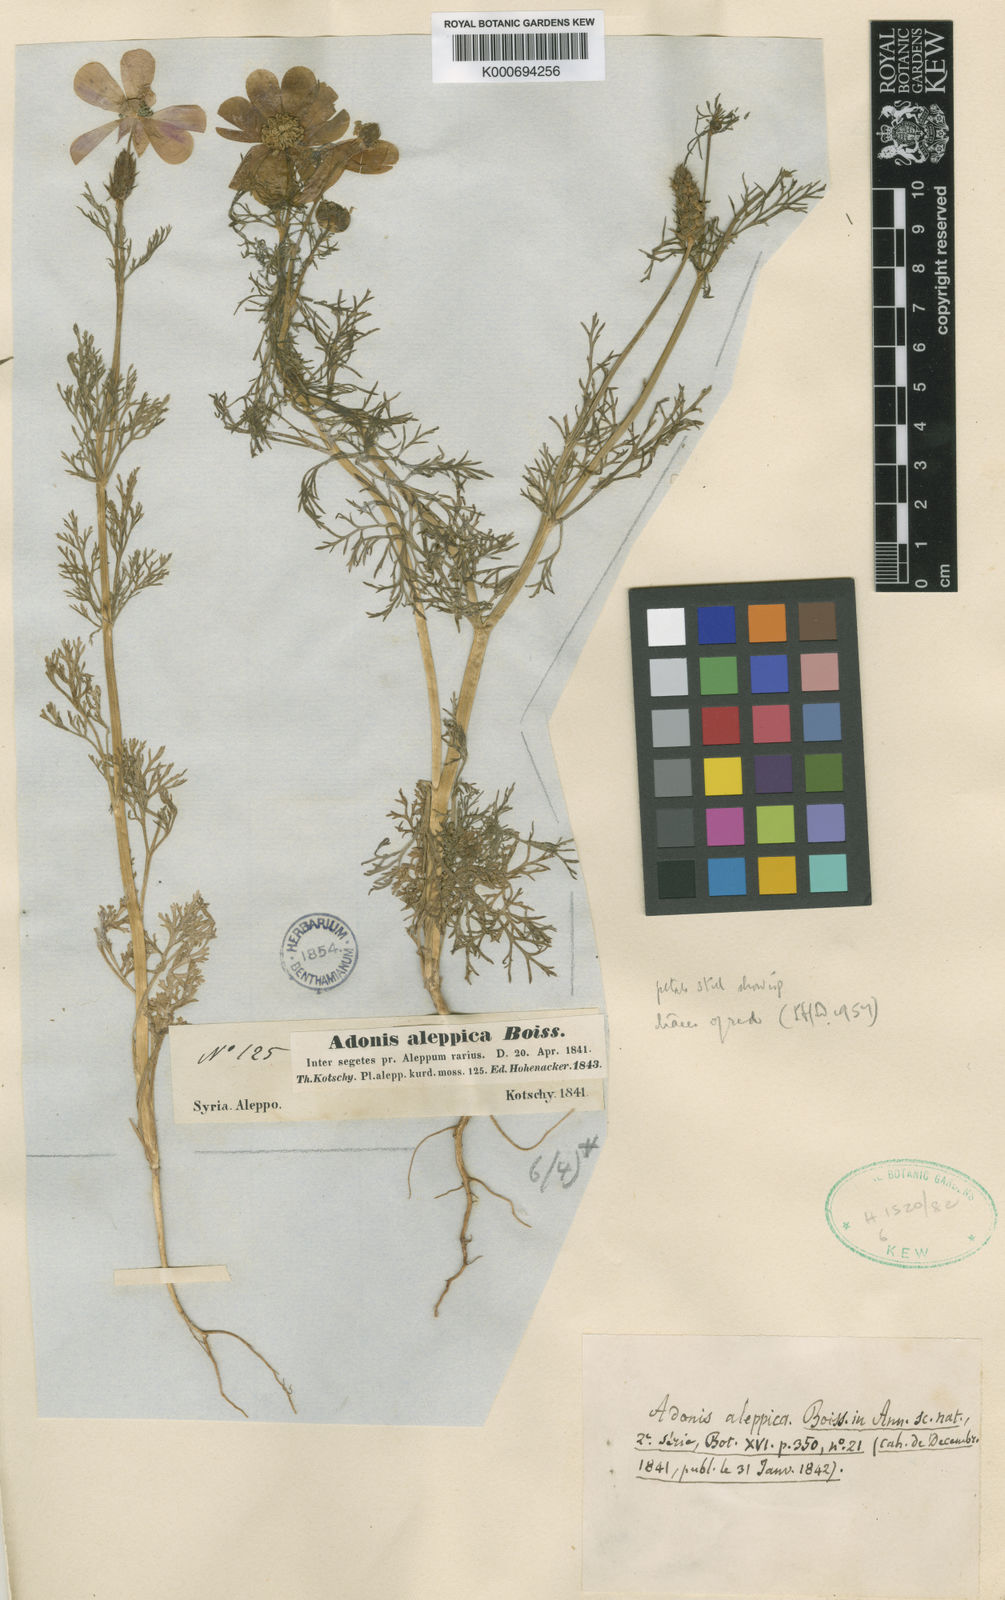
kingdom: Plantae
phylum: Tracheophyta
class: Magnoliopsida
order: Ranunculales
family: Ranunculaceae
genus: Adonis
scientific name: Adonis aleppica
